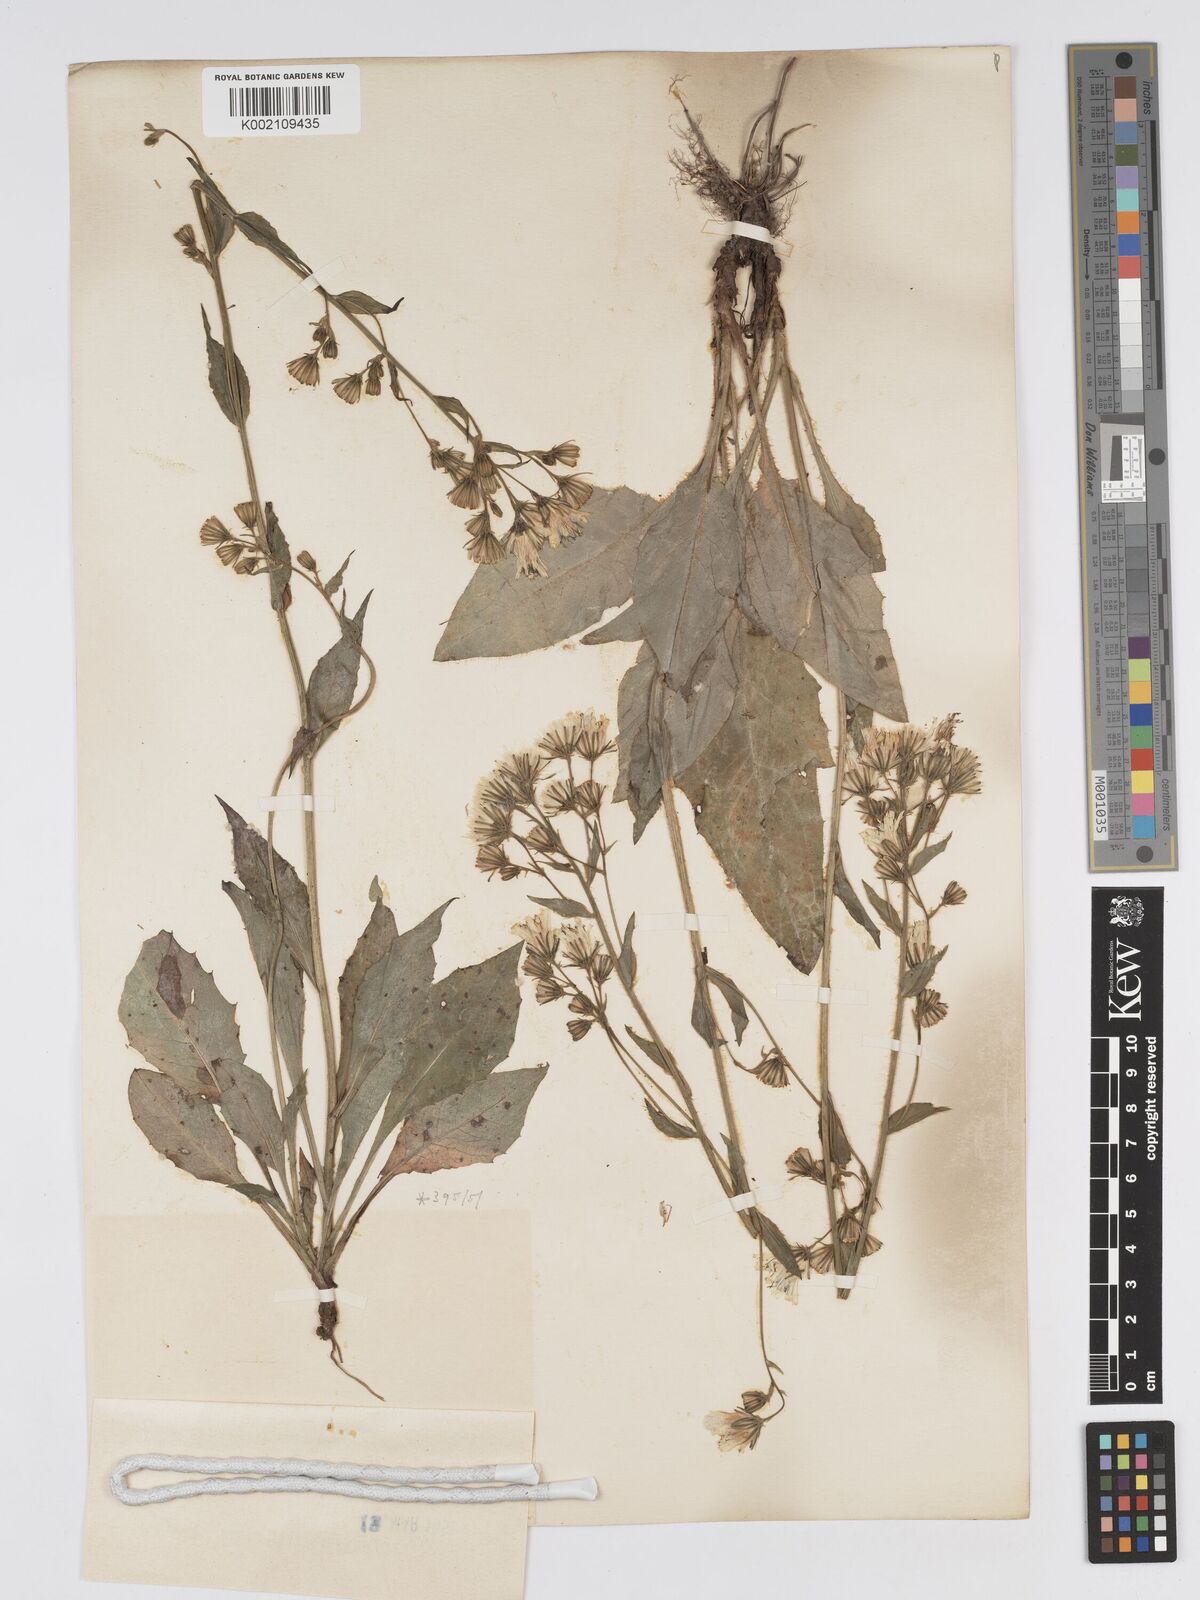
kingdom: Plantae
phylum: Tracheophyta
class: Magnoliopsida
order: Asterales
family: Asteraceae
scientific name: Asteraceae
